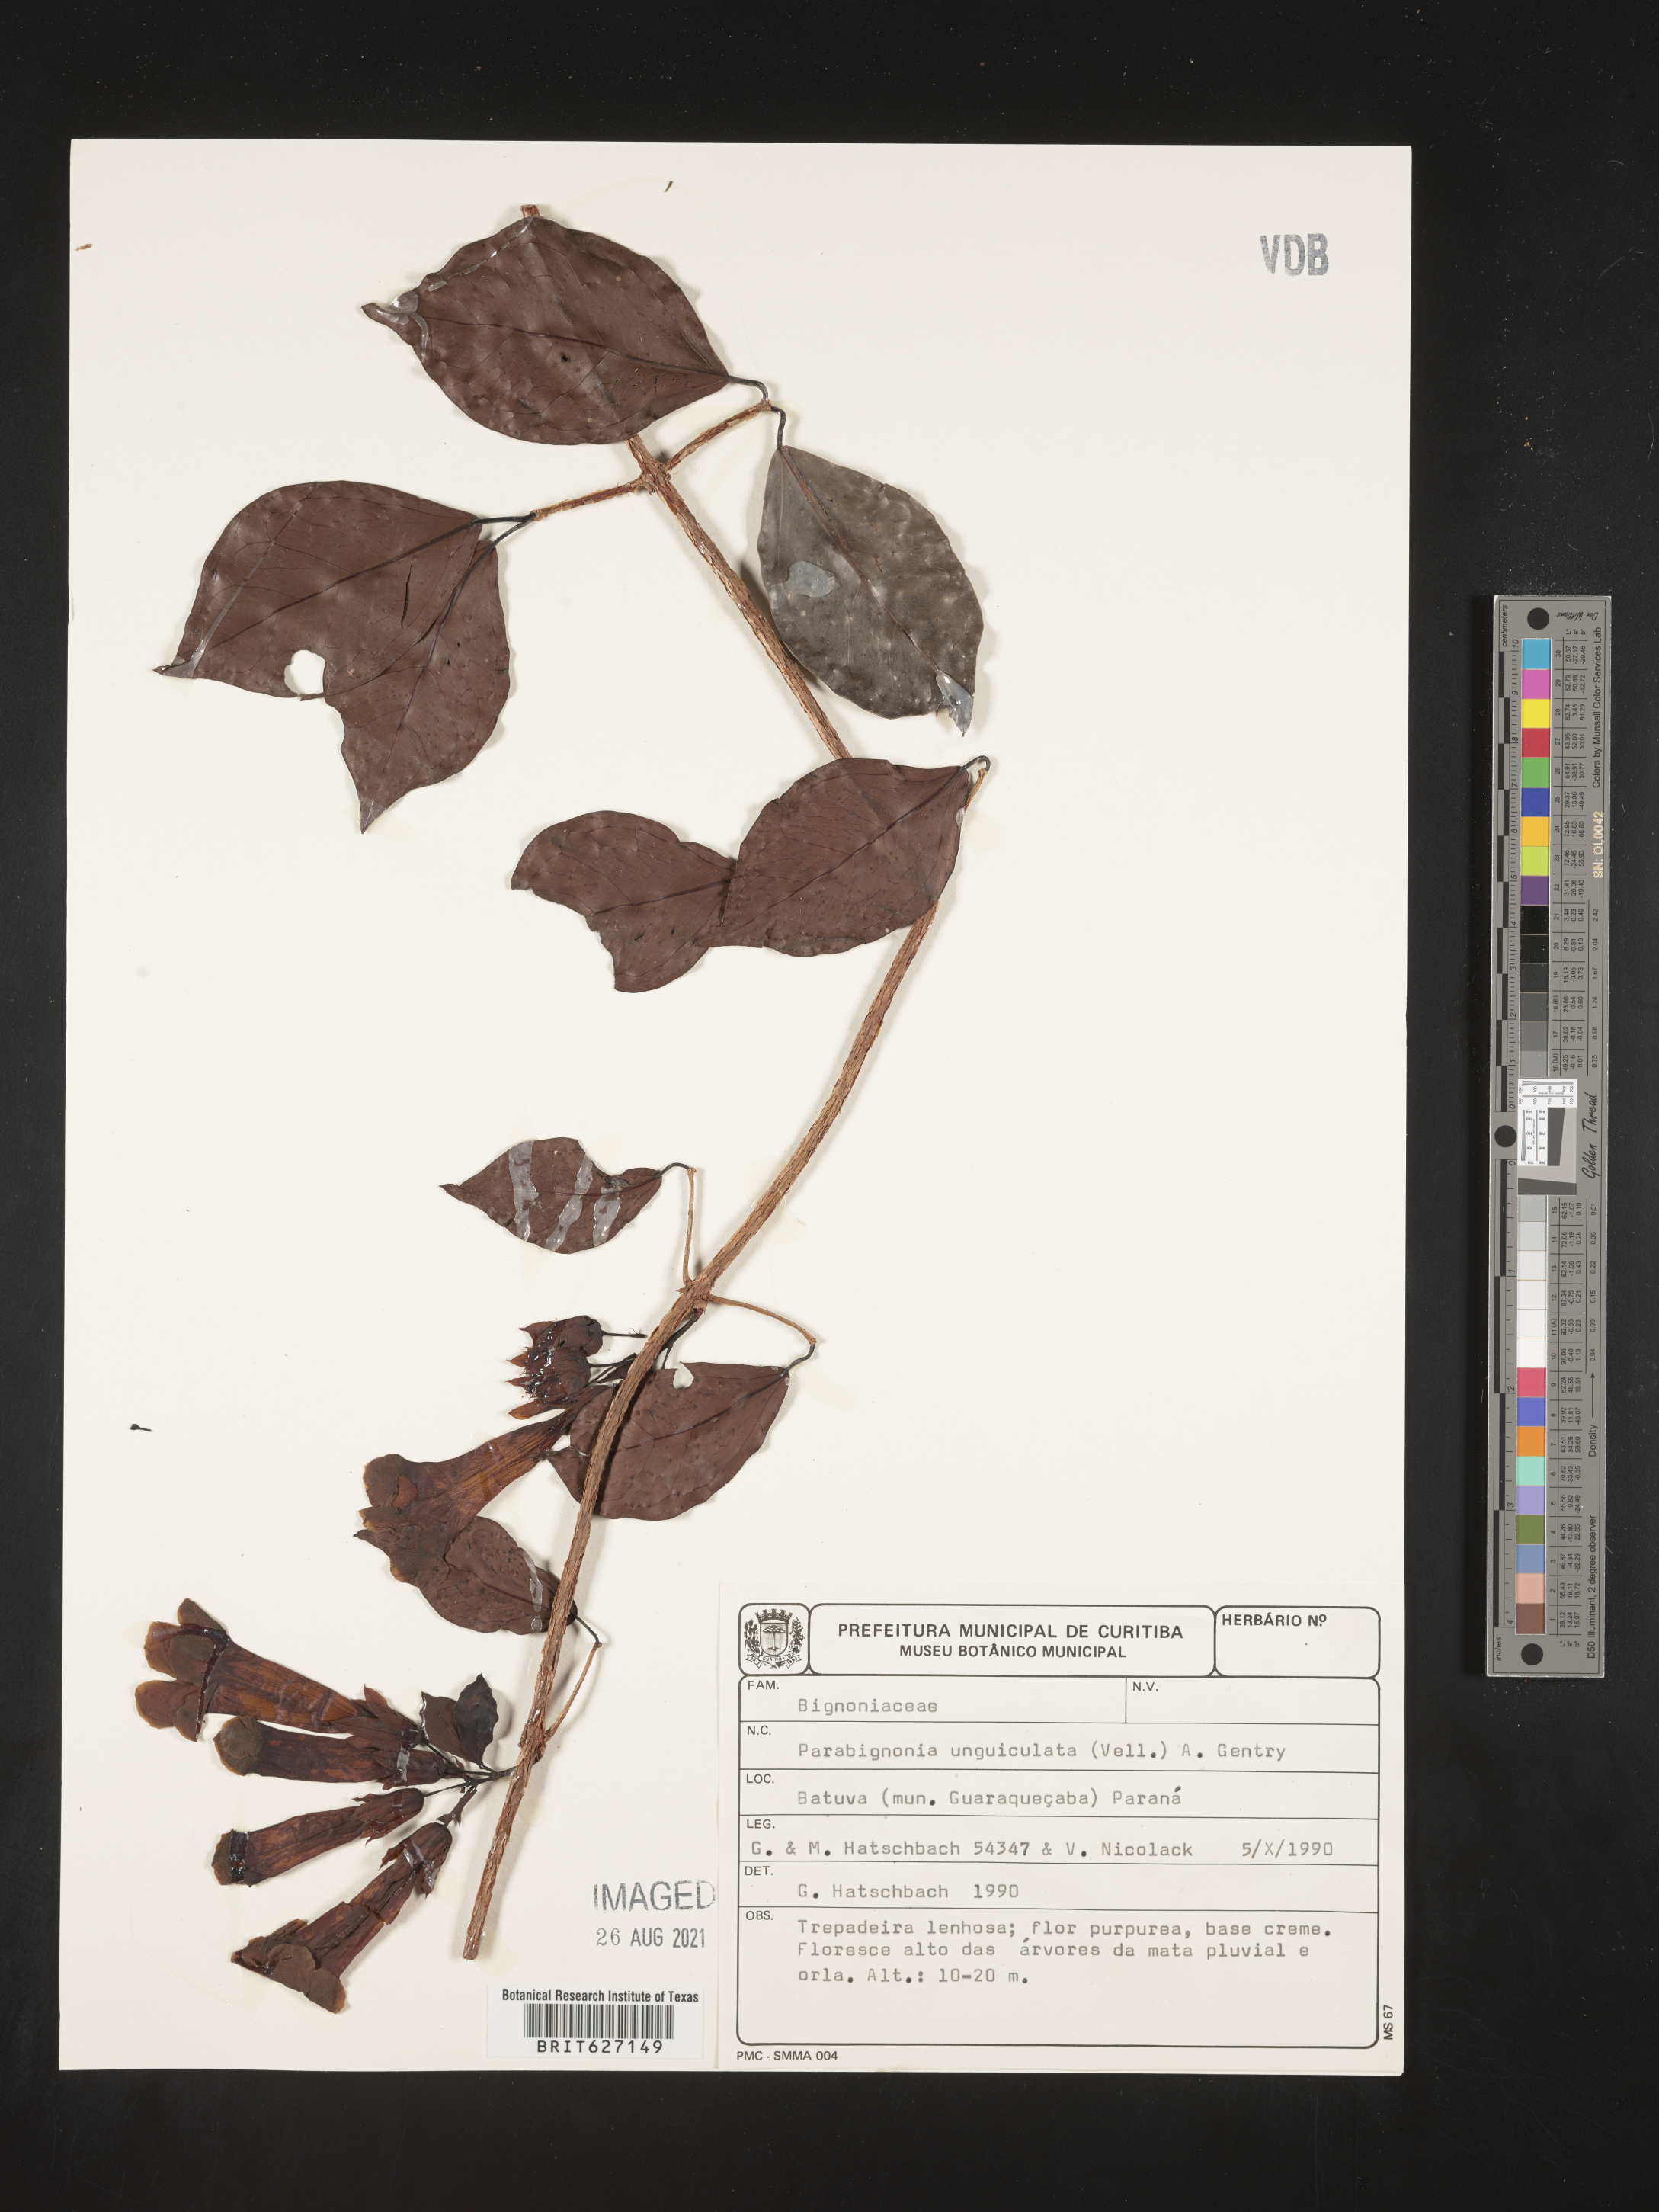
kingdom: Plantae
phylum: Tracheophyta
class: Magnoliopsida
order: Lamiales
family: Bignoniaceae
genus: Dolichandra
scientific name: Dolichandra unguiculata
